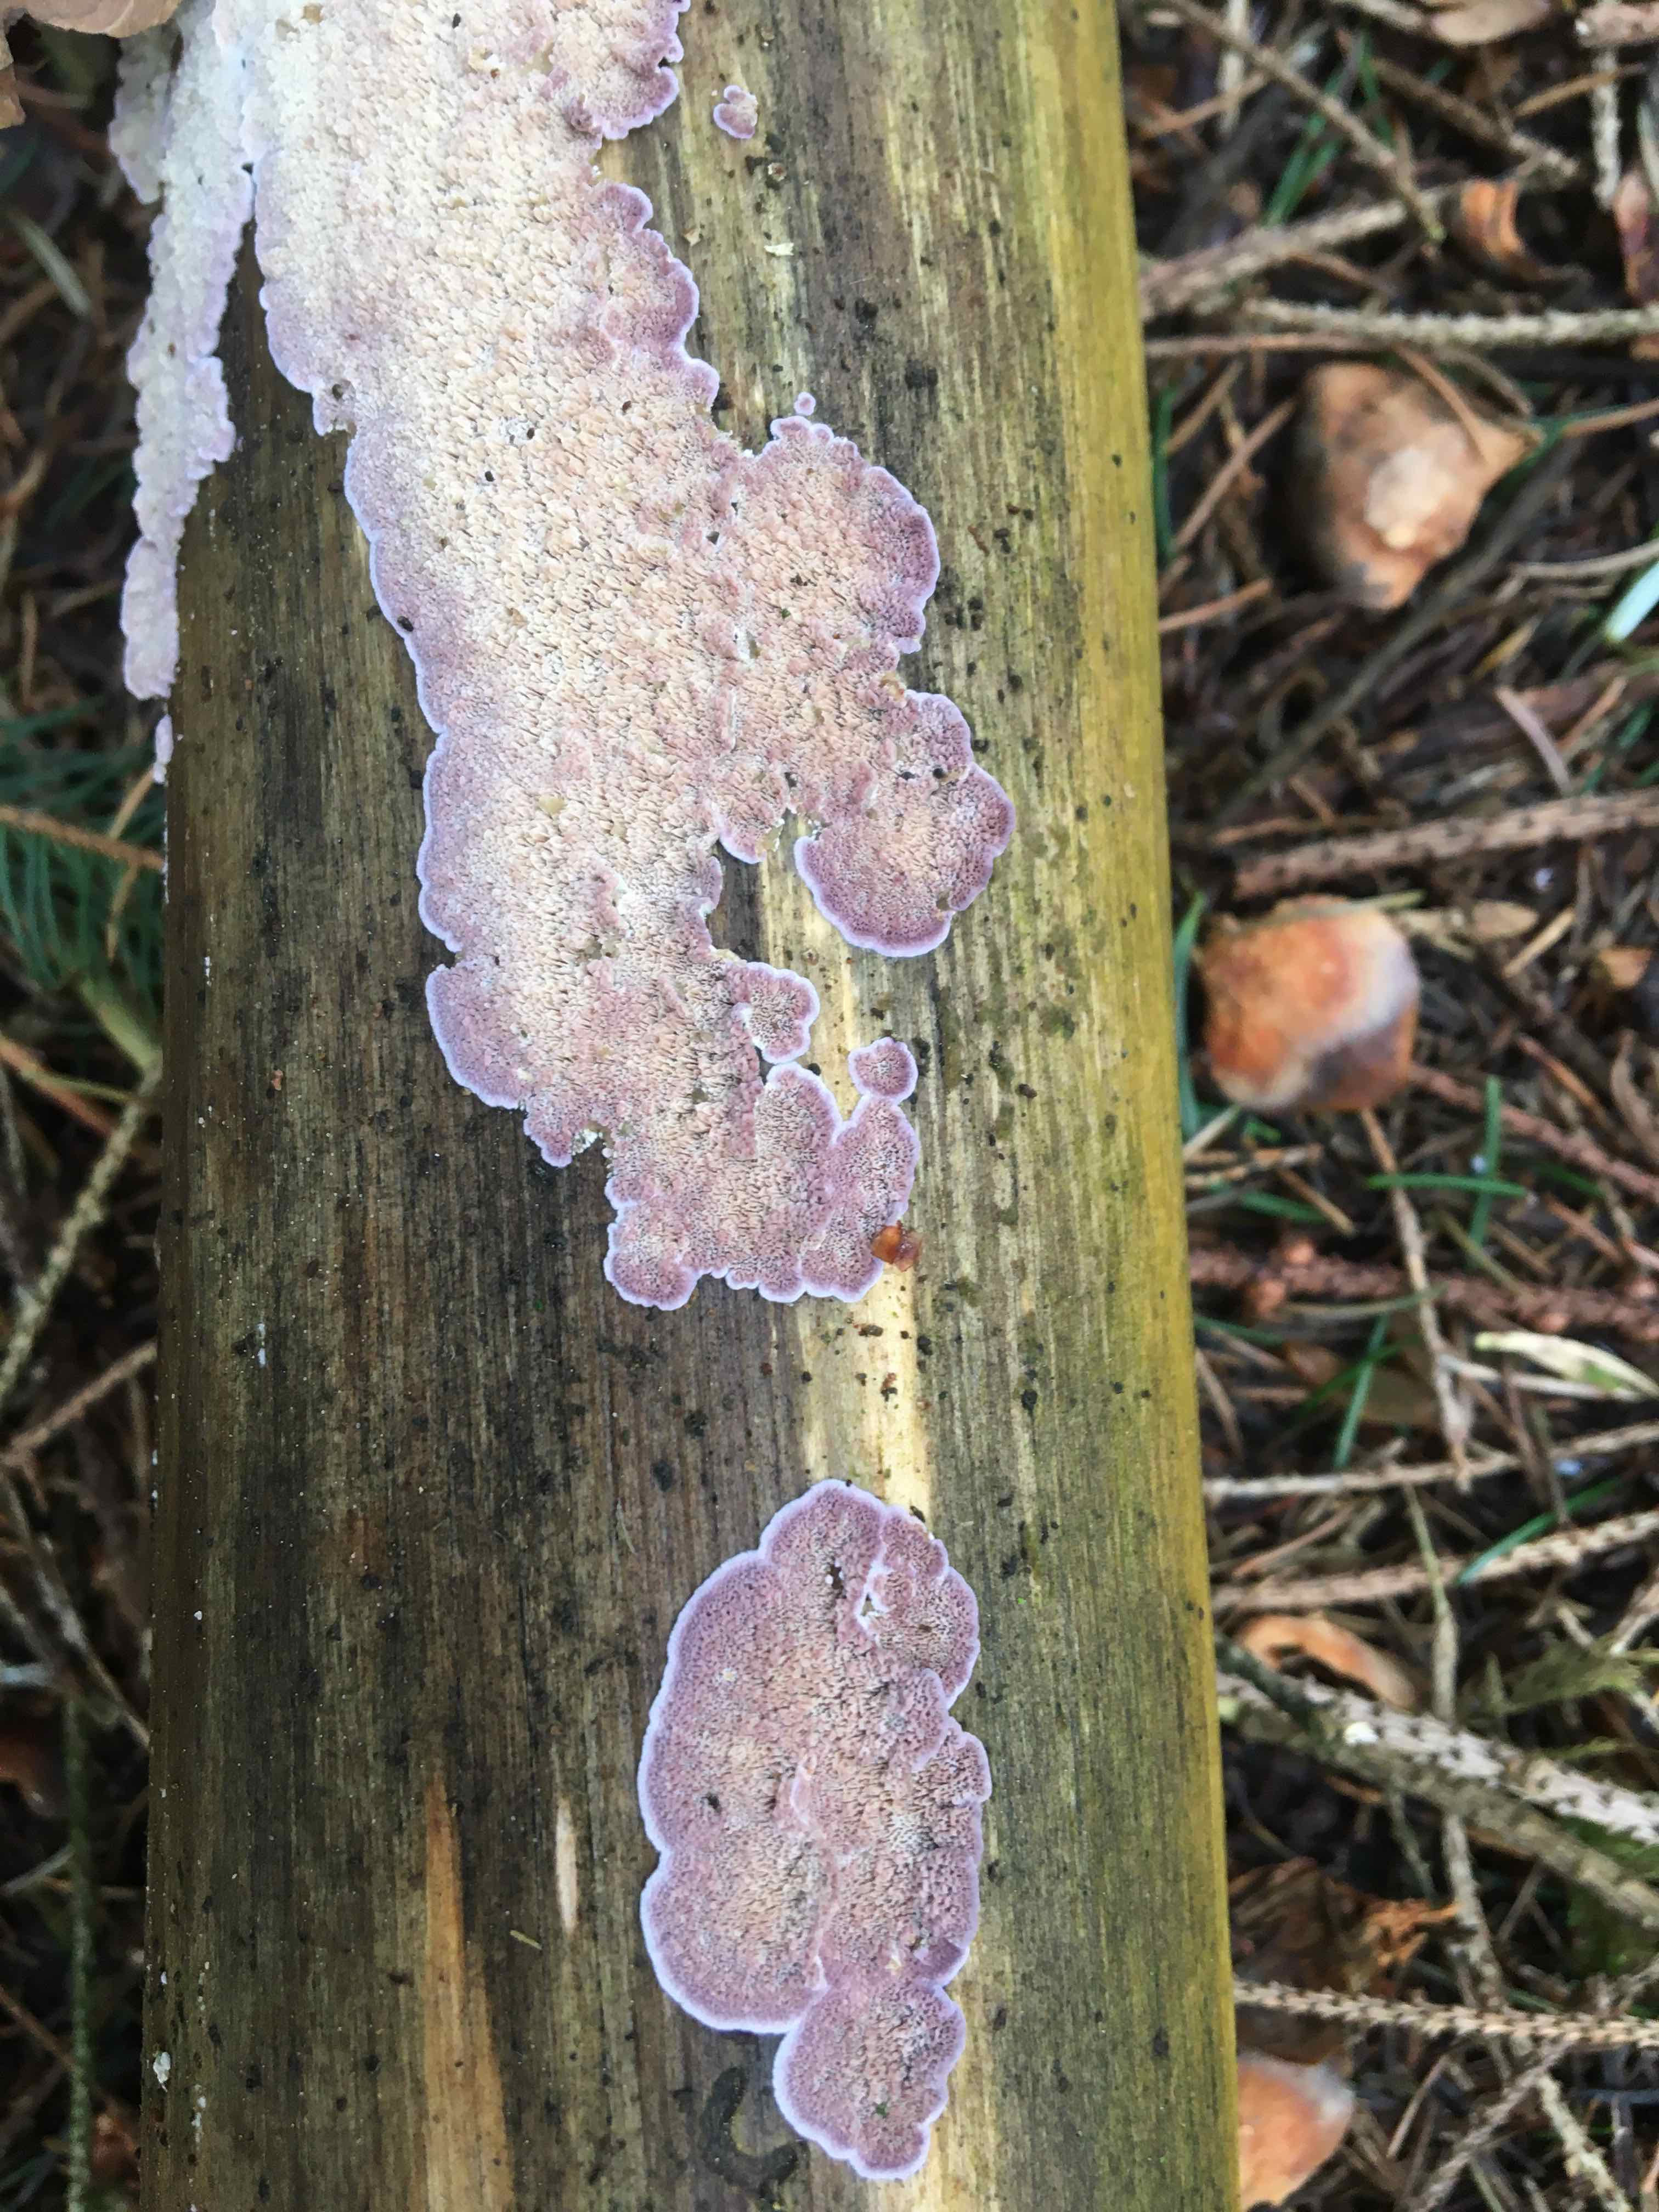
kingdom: Fungi
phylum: Basidiomycota
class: Agaricomycetes
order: Hymenochaetales
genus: Trichaptum
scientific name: Trichaptum abietinum
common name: almindelig violporesvamp
